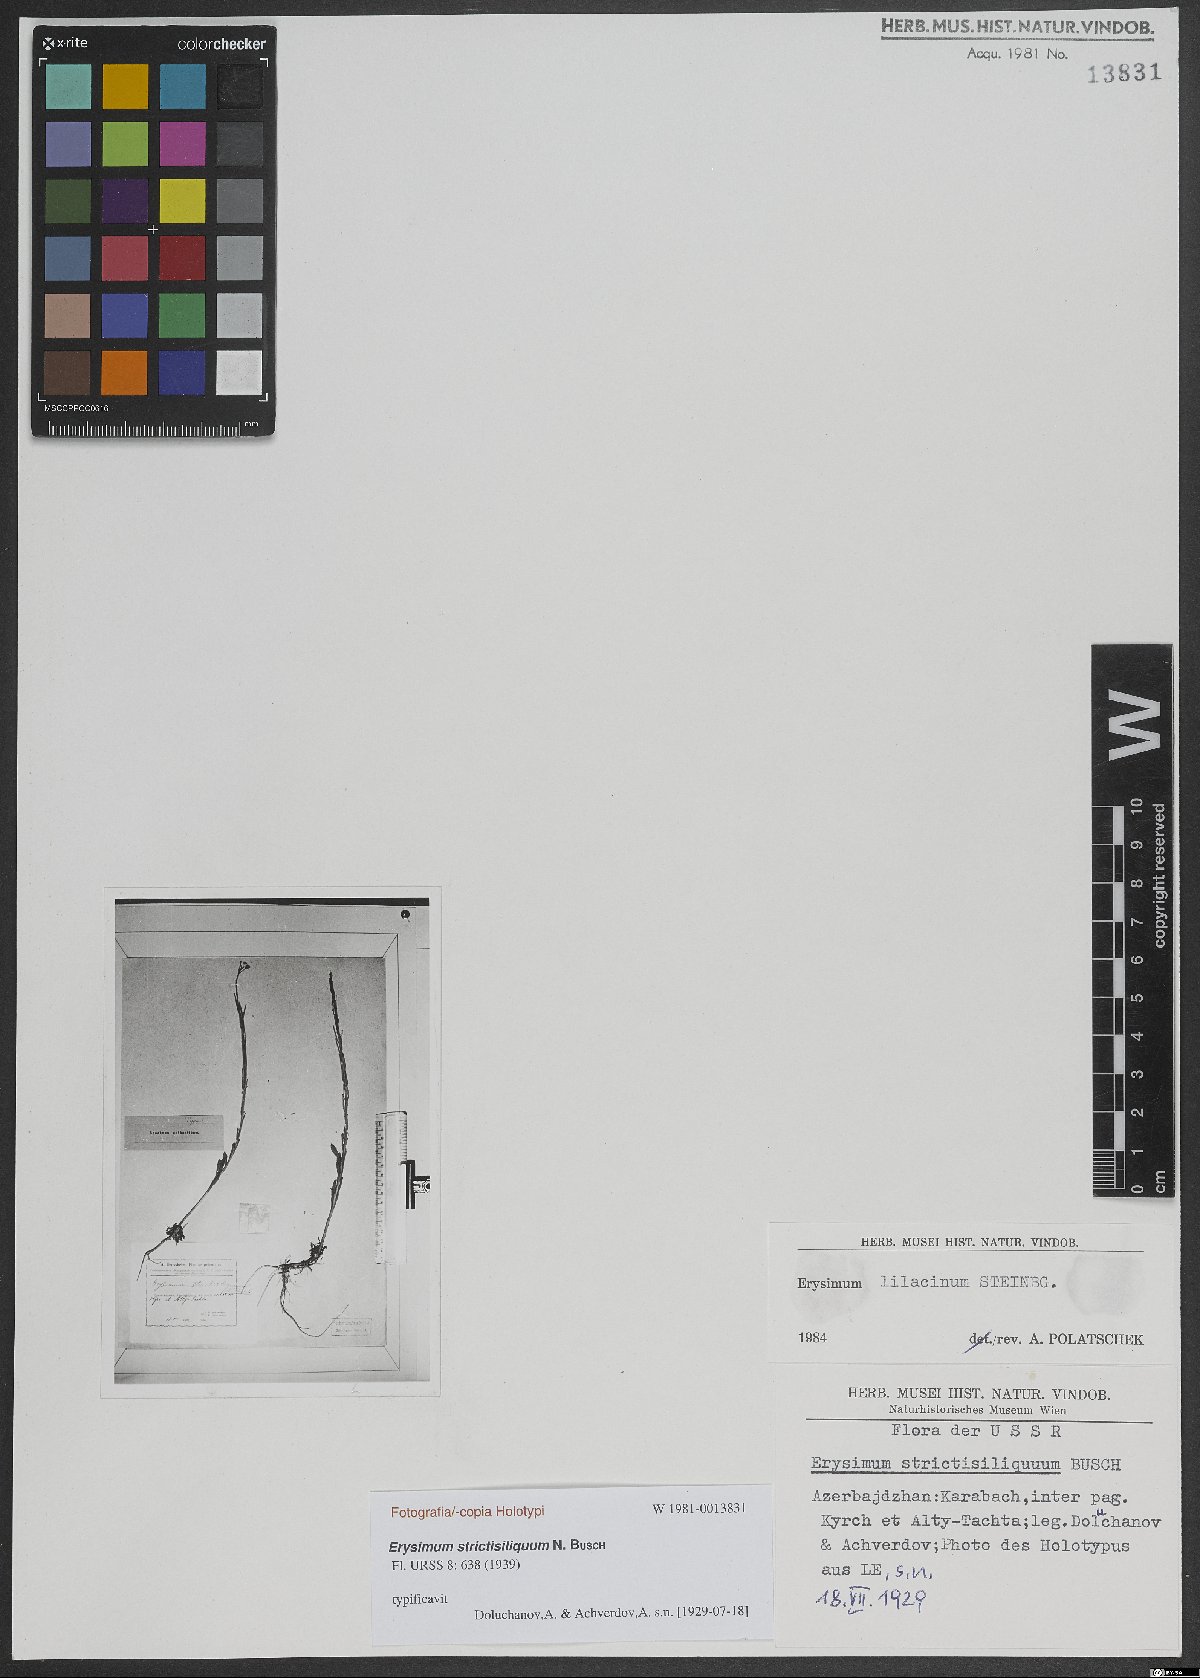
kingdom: Plantae
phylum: Tracheophyta
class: Magnoliopsida
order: Brassicales
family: Brassicaceae
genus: Erysimum
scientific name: Erysimum lilacinum
